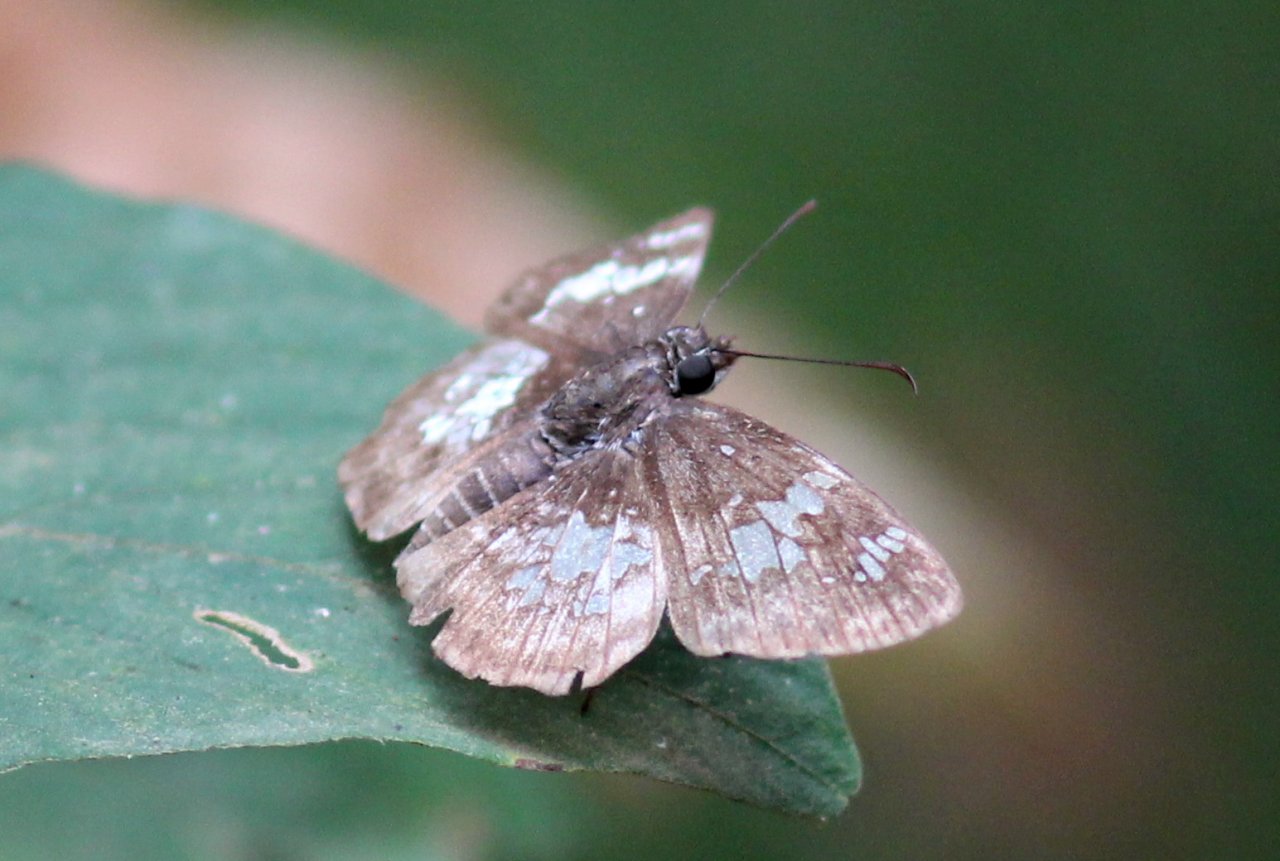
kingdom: Animalia
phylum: Arthropoda
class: Insecta
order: Lepidoptera
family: Hesperiidae
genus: Xenophanes
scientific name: Xenophanes tryxus
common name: Glassy-winged Skipper
